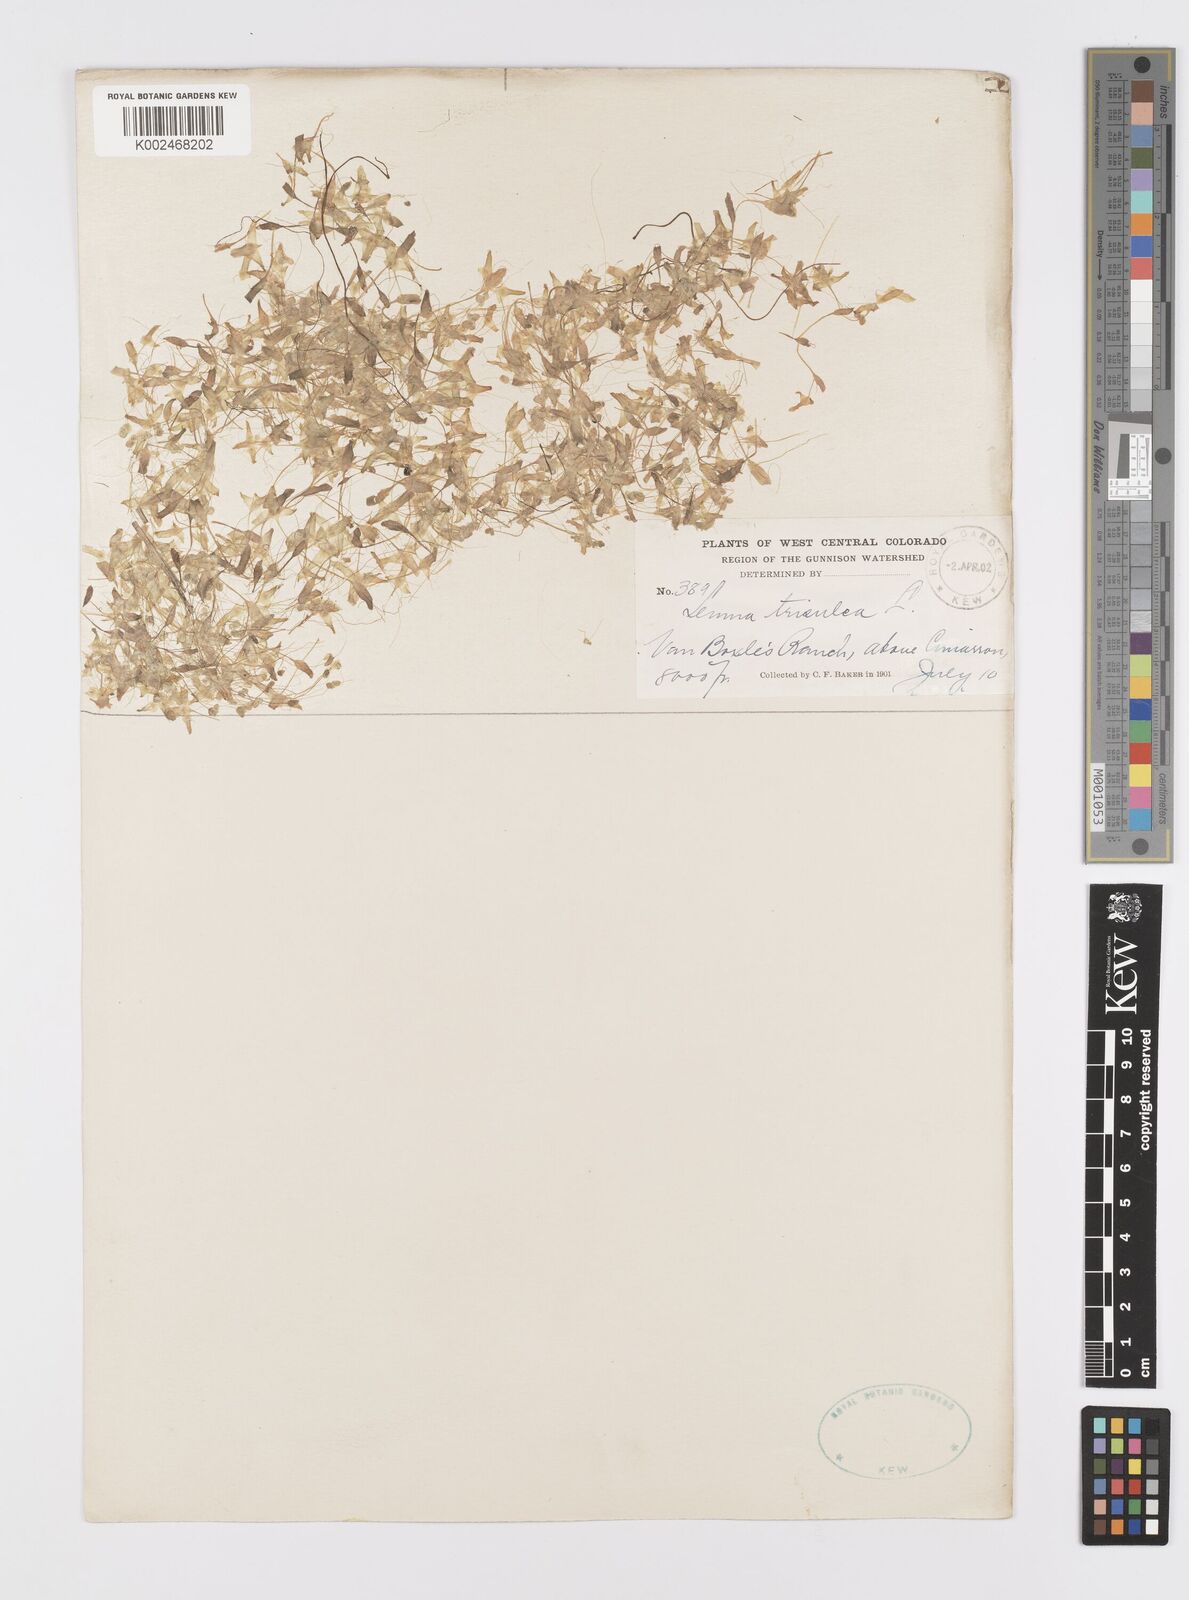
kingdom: Plantae
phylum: Tracheophyta
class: Liliopsida
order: Alismatales
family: Araceae
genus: Lemna
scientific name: Lemna trisulca
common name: Ivy-leaved duckweed
